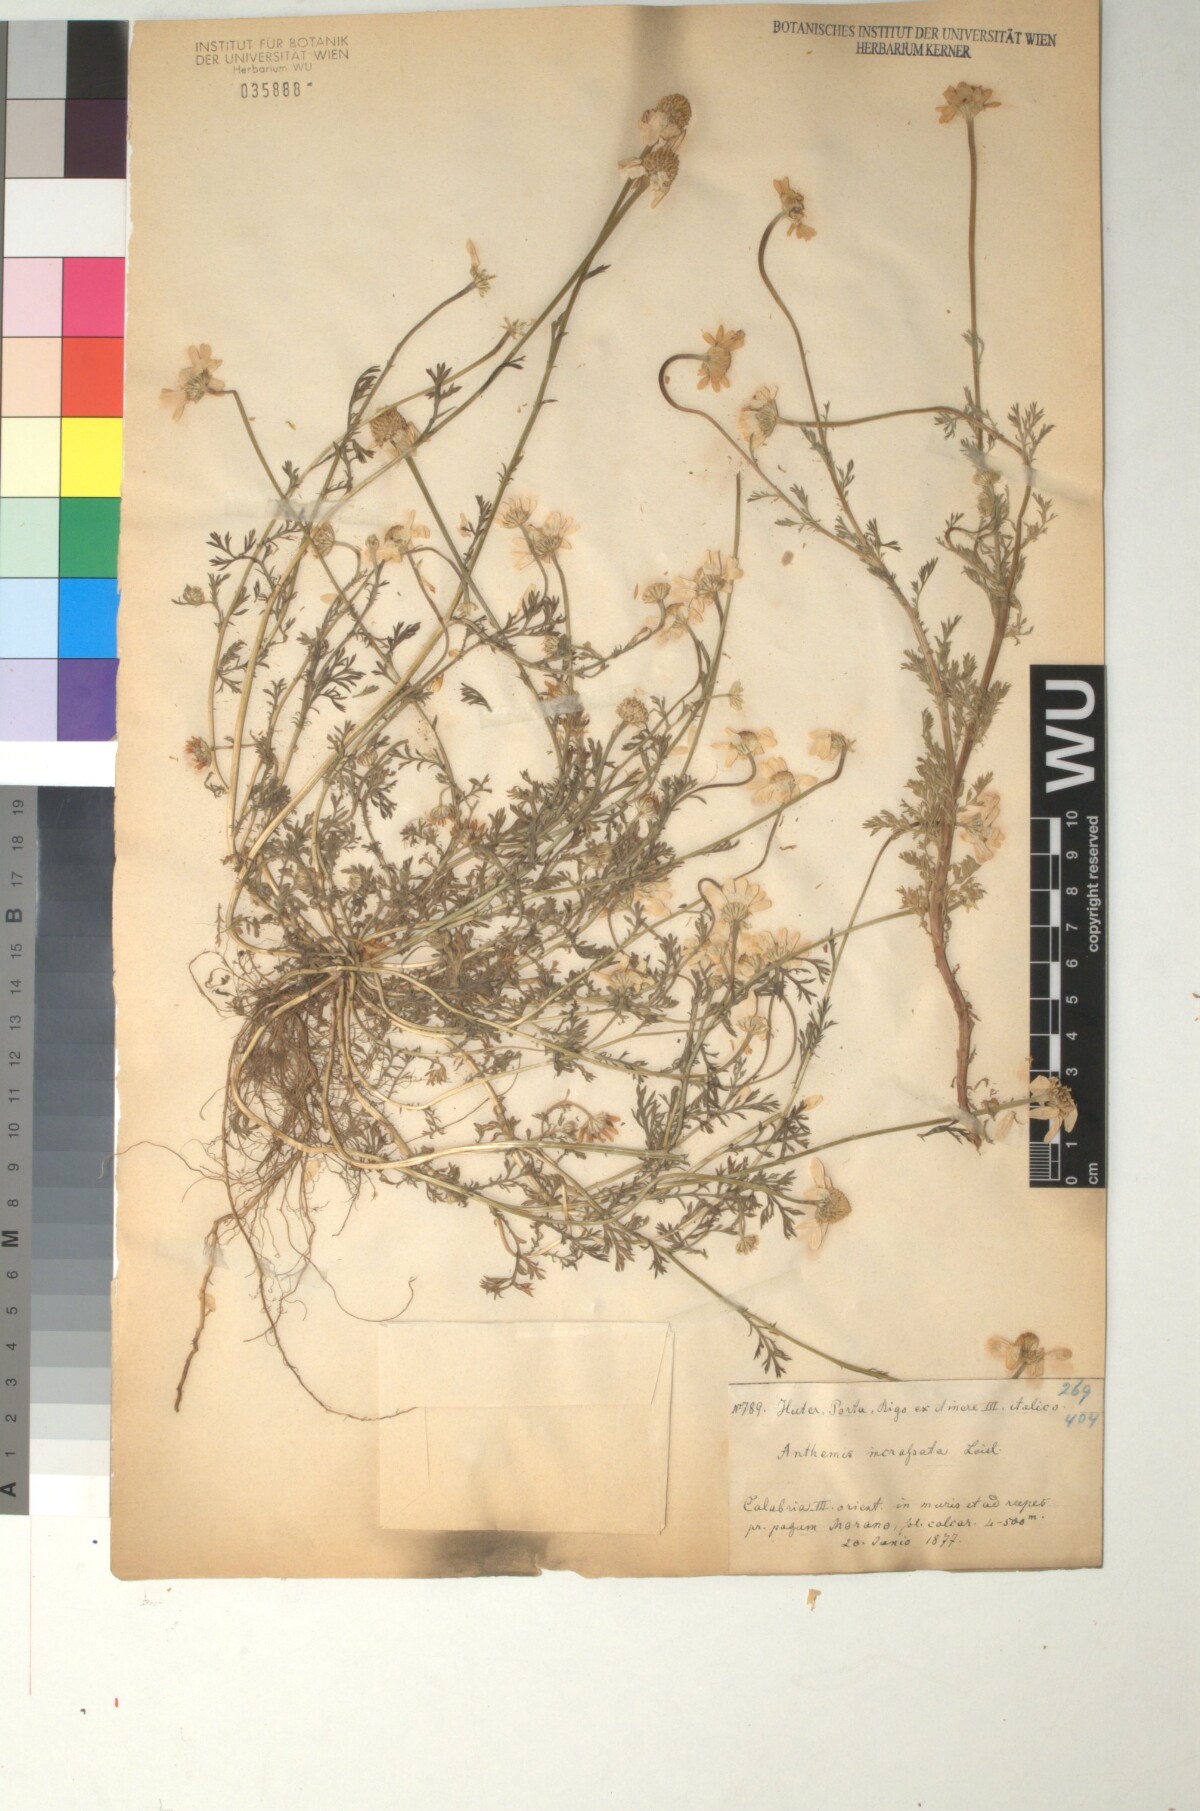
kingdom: Plantae
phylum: Tracheophyta
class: Magnoliopsida
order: Asterales
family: Asteraceae
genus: Anthemis
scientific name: Anthemis arvensis
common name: Corn chamomile
